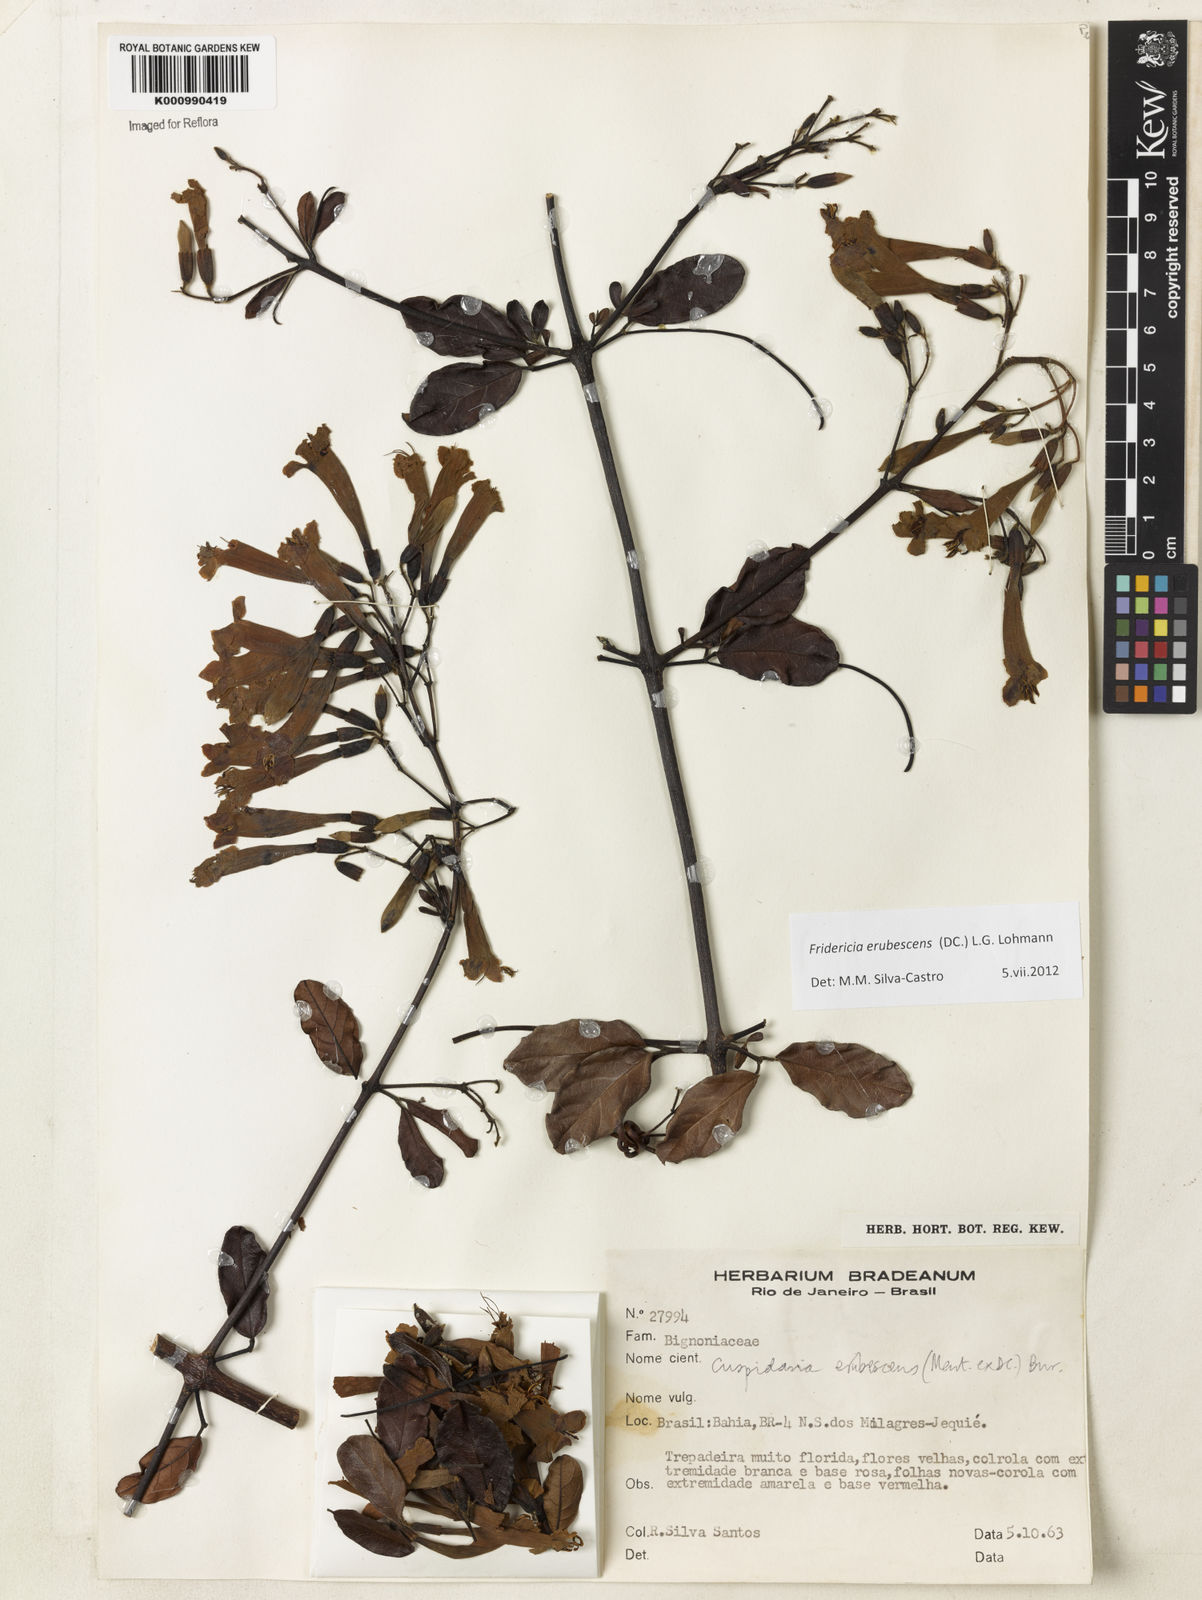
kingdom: Plantae
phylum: Tracheophyta
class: Magnoliopsida
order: Lamiales
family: Bignoniaceae
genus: Fridericia
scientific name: Fridericia erubescens
